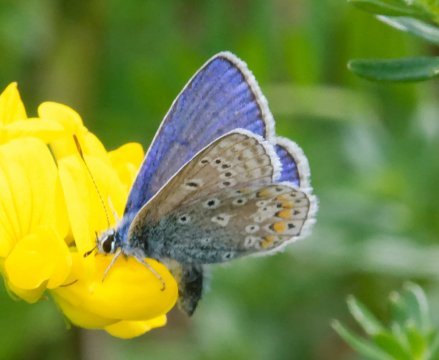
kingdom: Animalia
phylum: Arthropoda
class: Insecta
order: Lepidoptera
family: Lycaenidae
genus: Polyommatus
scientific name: Polyommatus icarus
